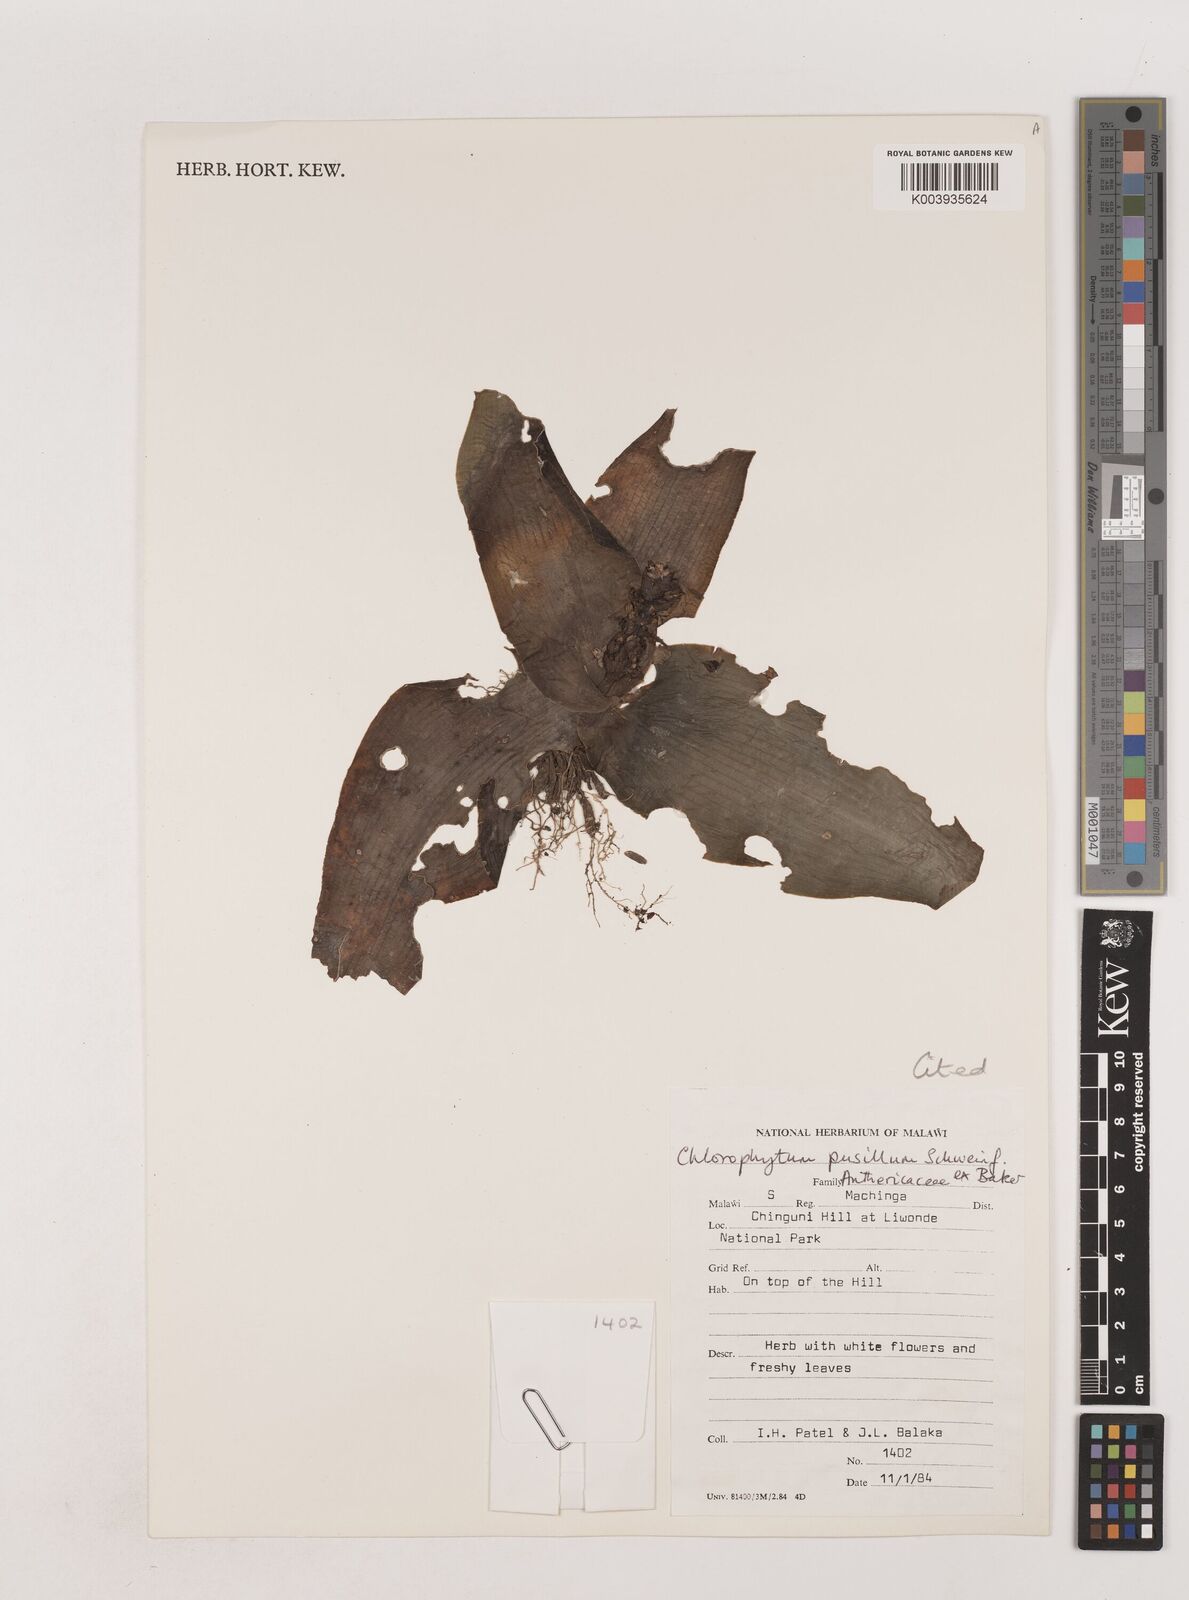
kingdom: Plantae
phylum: Tracheophyta
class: Liliopsida
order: Asparagales
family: Asparagaceae
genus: Chlorophytum
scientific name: Chlorophytum pusillum
